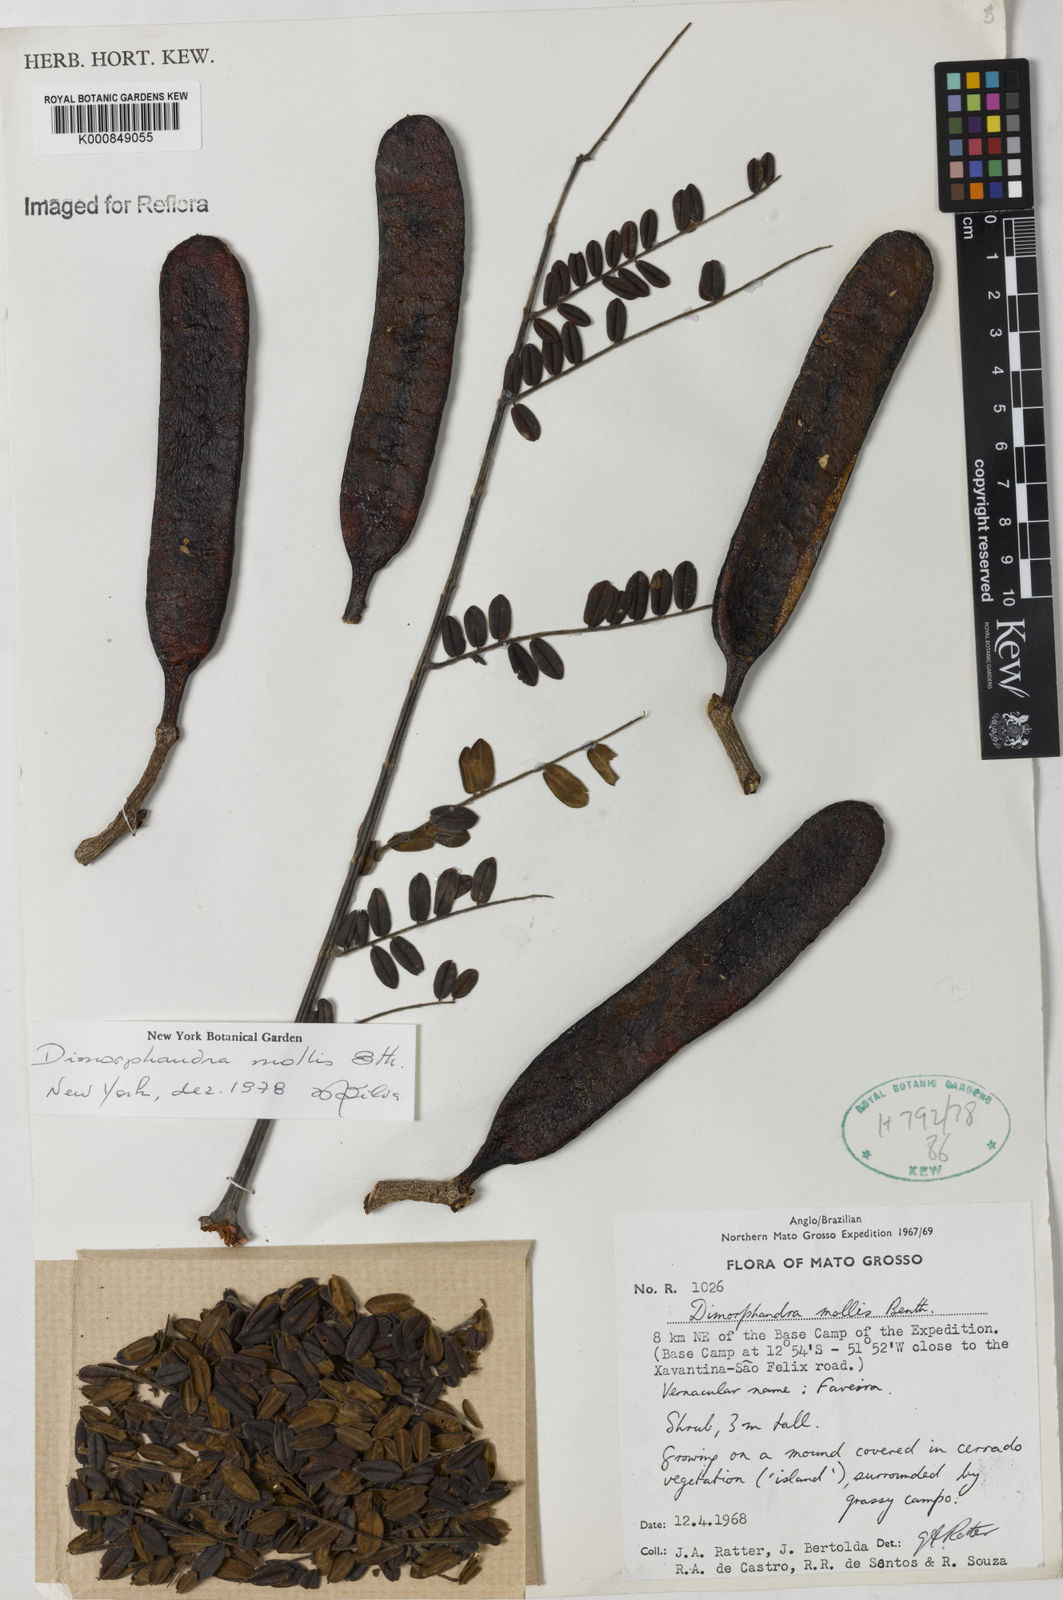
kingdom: Plantae
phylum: Tracheophyta
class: Magnoliopsida
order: Fabales
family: Fabaceae
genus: Dimorphandra
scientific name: Dimorphandra mollis
